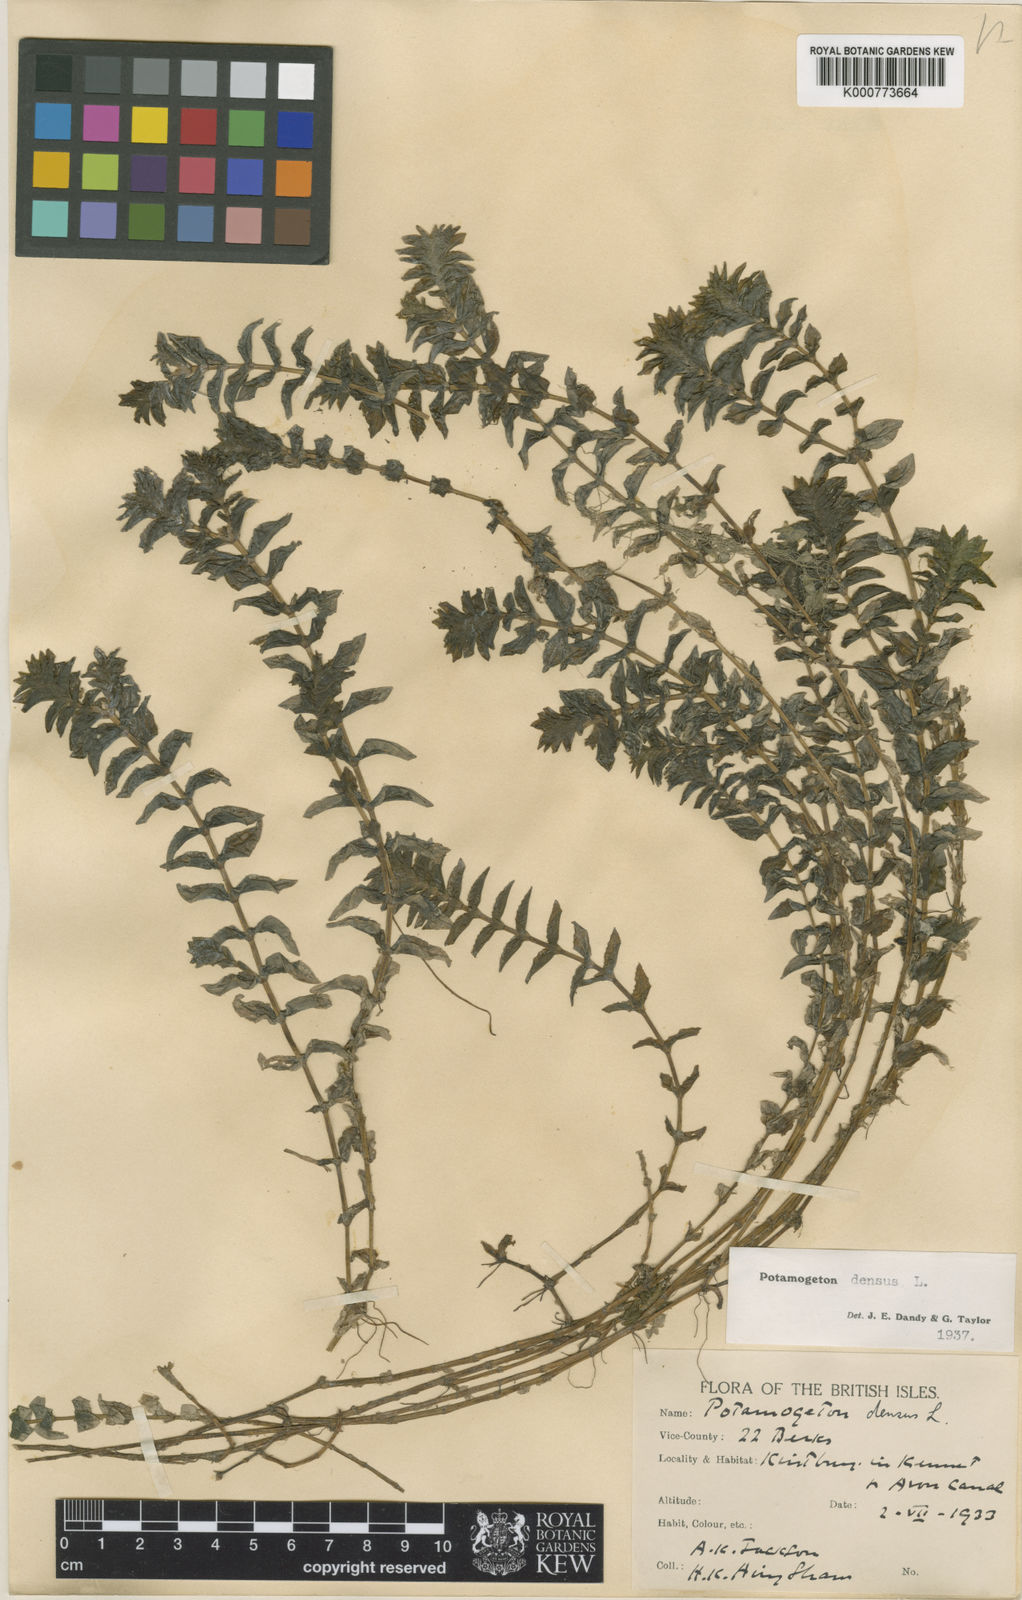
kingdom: Plantae
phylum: Tracheophyta
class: Liliopsida
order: Alismatales
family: Potamogetonaceae
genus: Groenlandia
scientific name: Groenlandia densa
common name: Opposite-leaved pondweed
